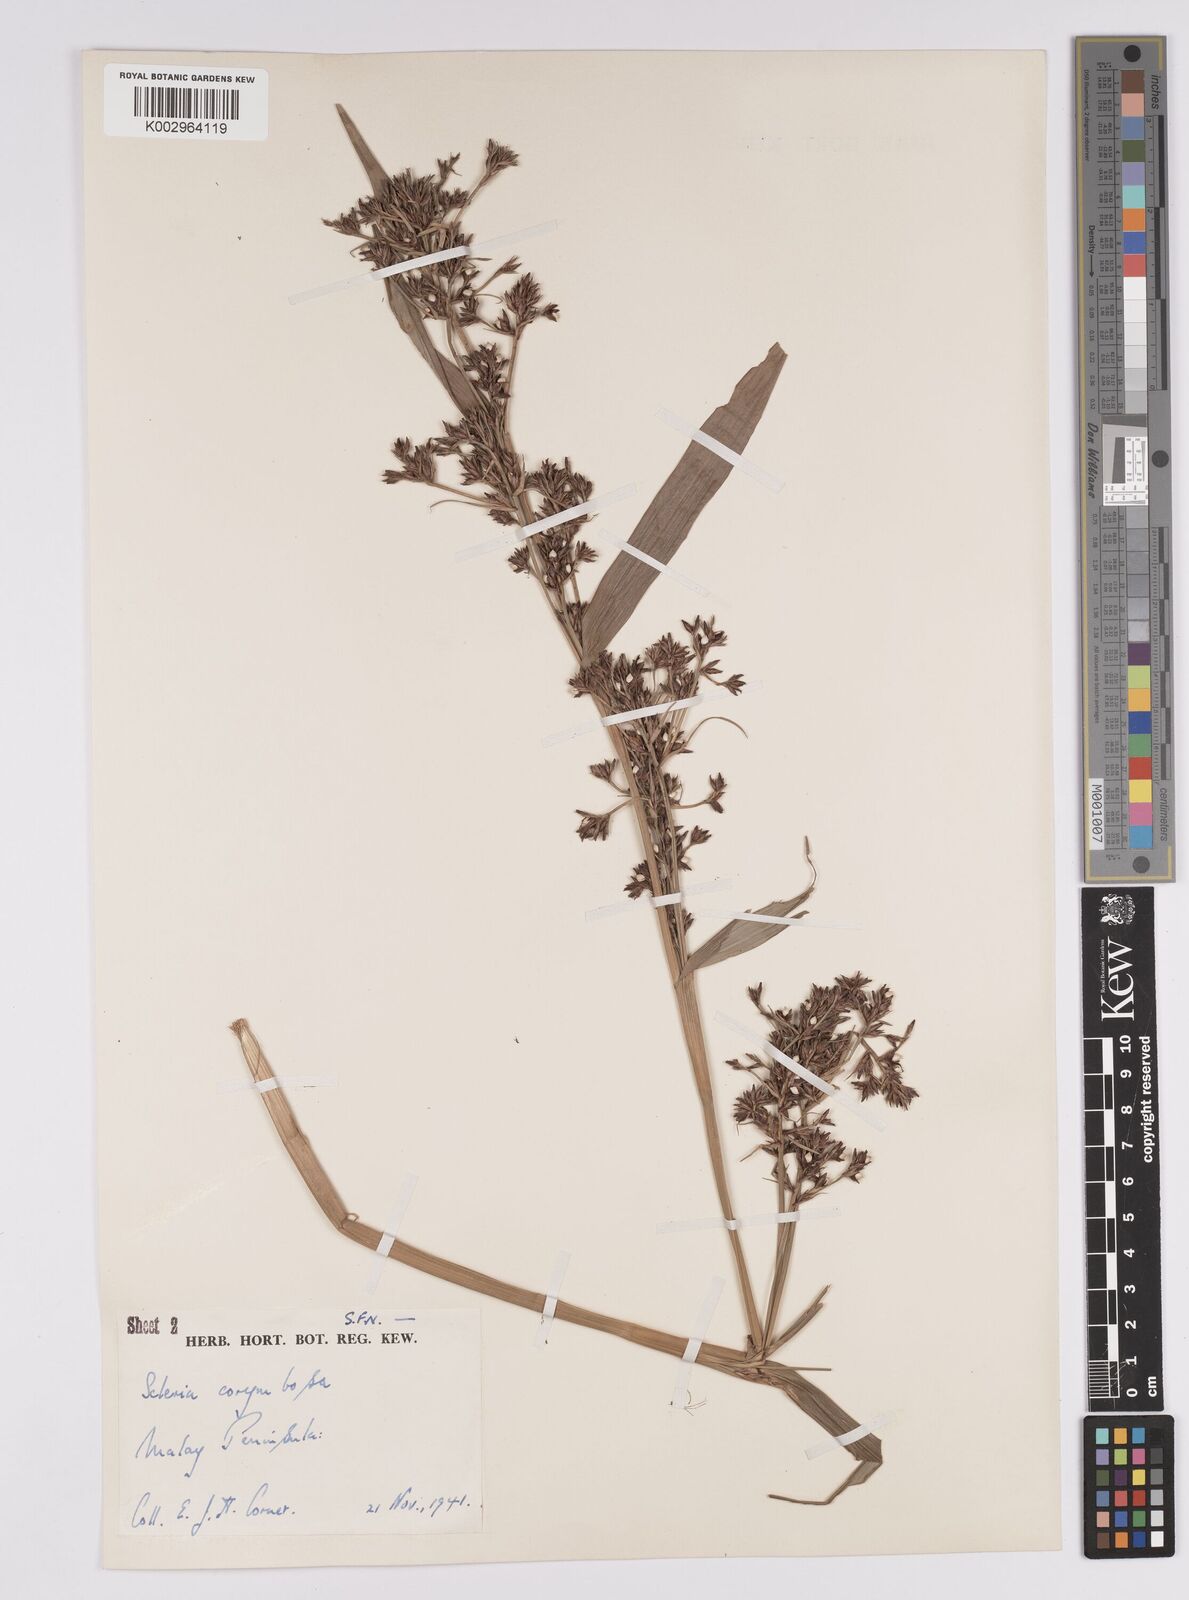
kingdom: Plantae
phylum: Tracheophyta
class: Liliopsida
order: Poales
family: Cyperaceae
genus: Scleria
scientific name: Scleria corymbosa
